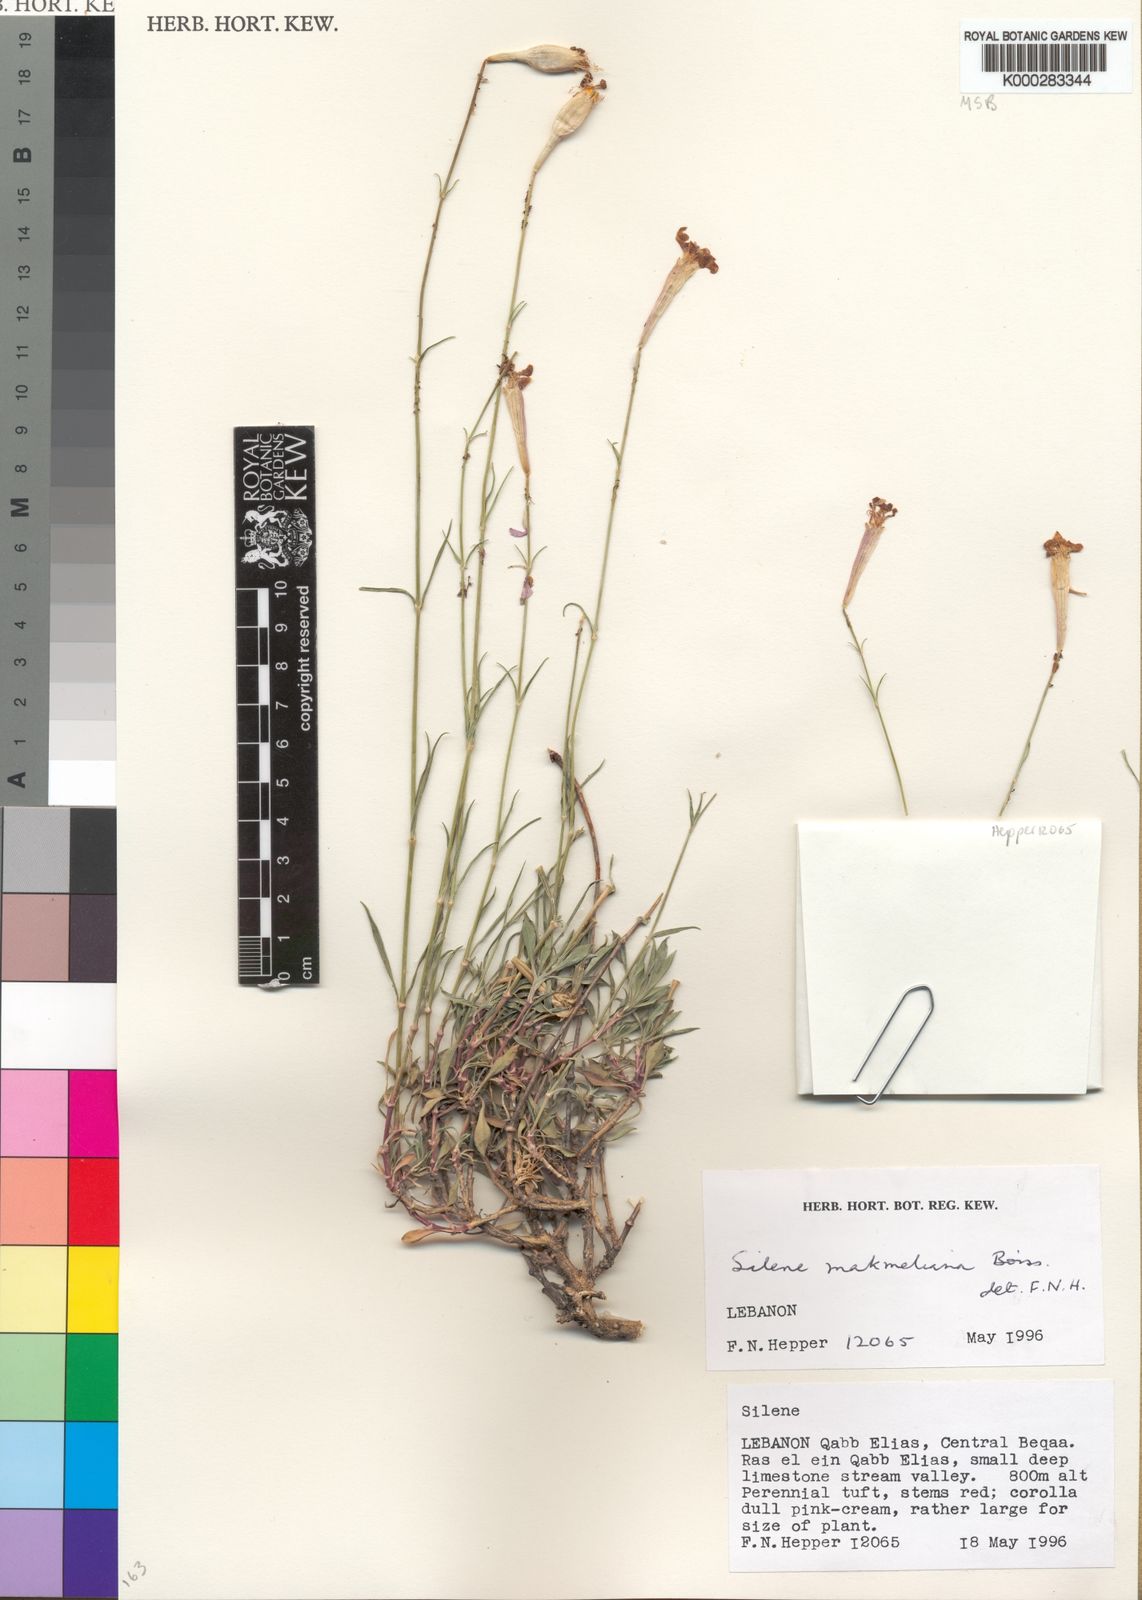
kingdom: Plantae
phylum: Tracheophyta
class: Magnoliopsida
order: Caryophyllales
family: Caryophyllaceae
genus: Silene
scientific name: Silene makmeliana
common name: Makmel catchfly
